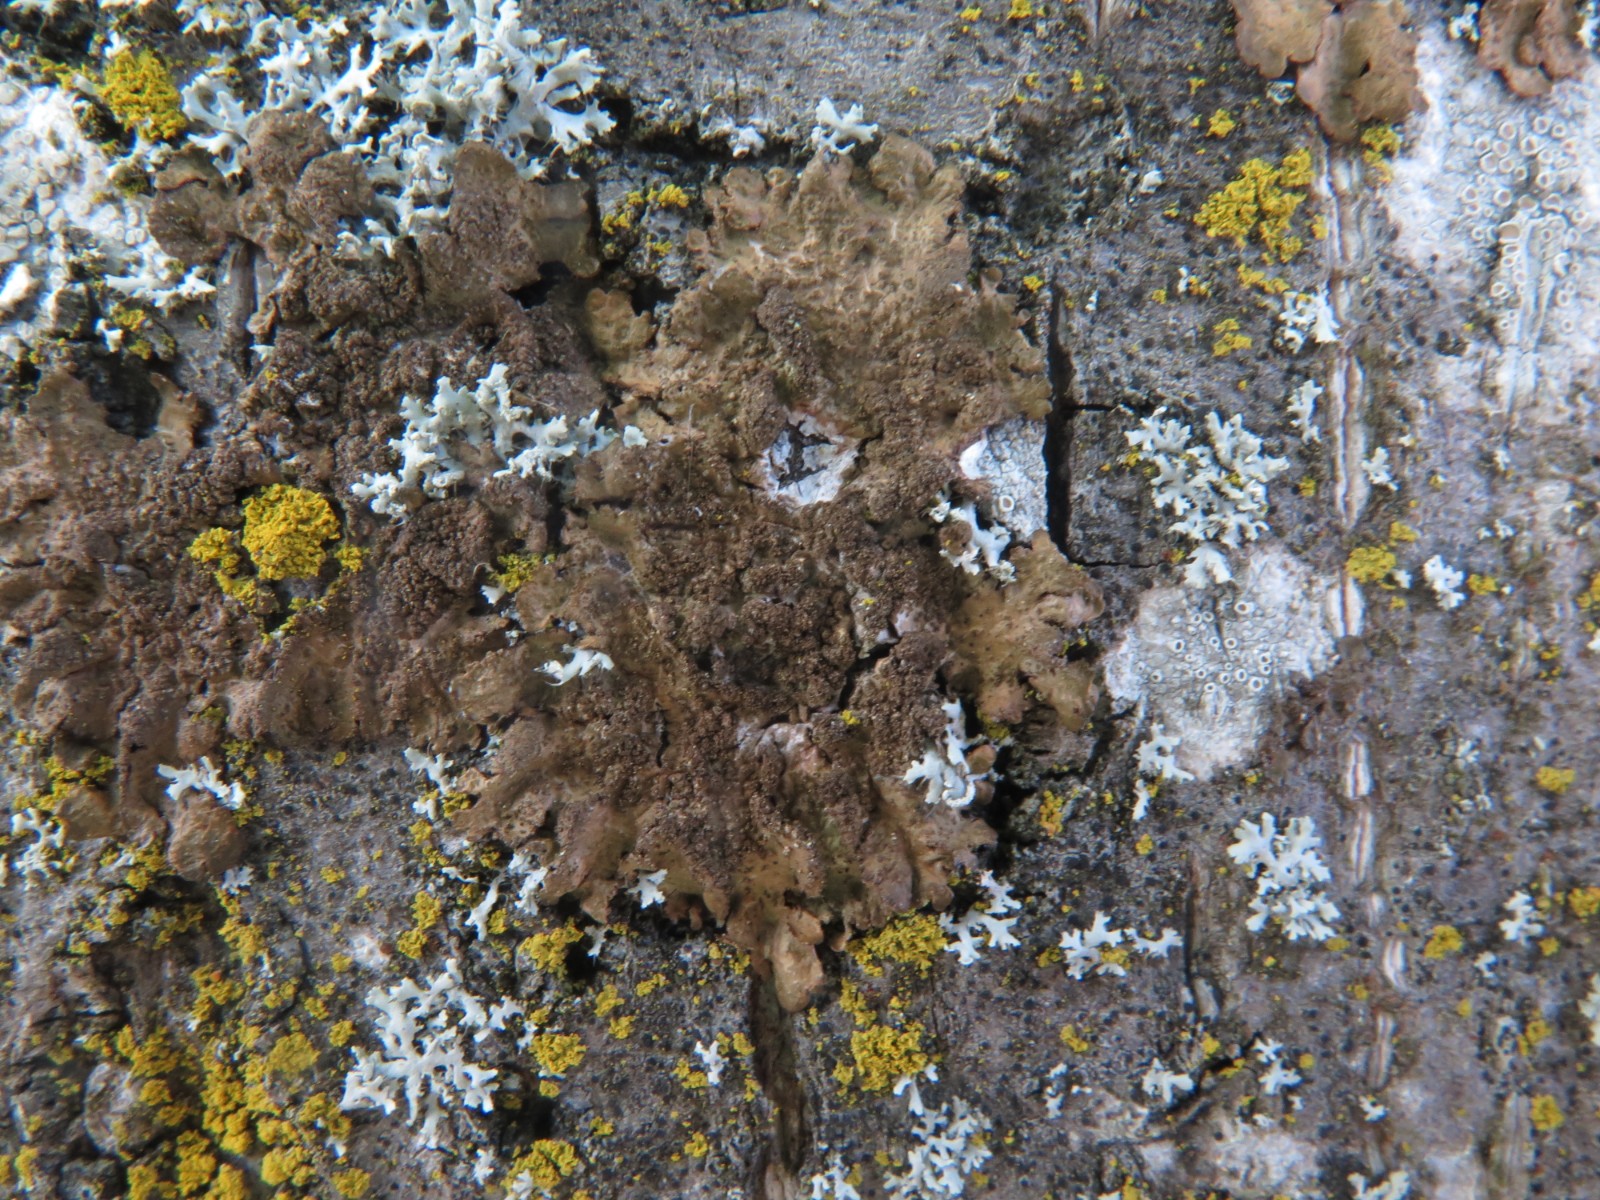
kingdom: Fungi
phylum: Ascomycota
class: Lecanoromycetes
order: Lecanorales
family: Parmeliaceae
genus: Melanelixia
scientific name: Melanelixia subaurifera
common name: guldpudret skållav
